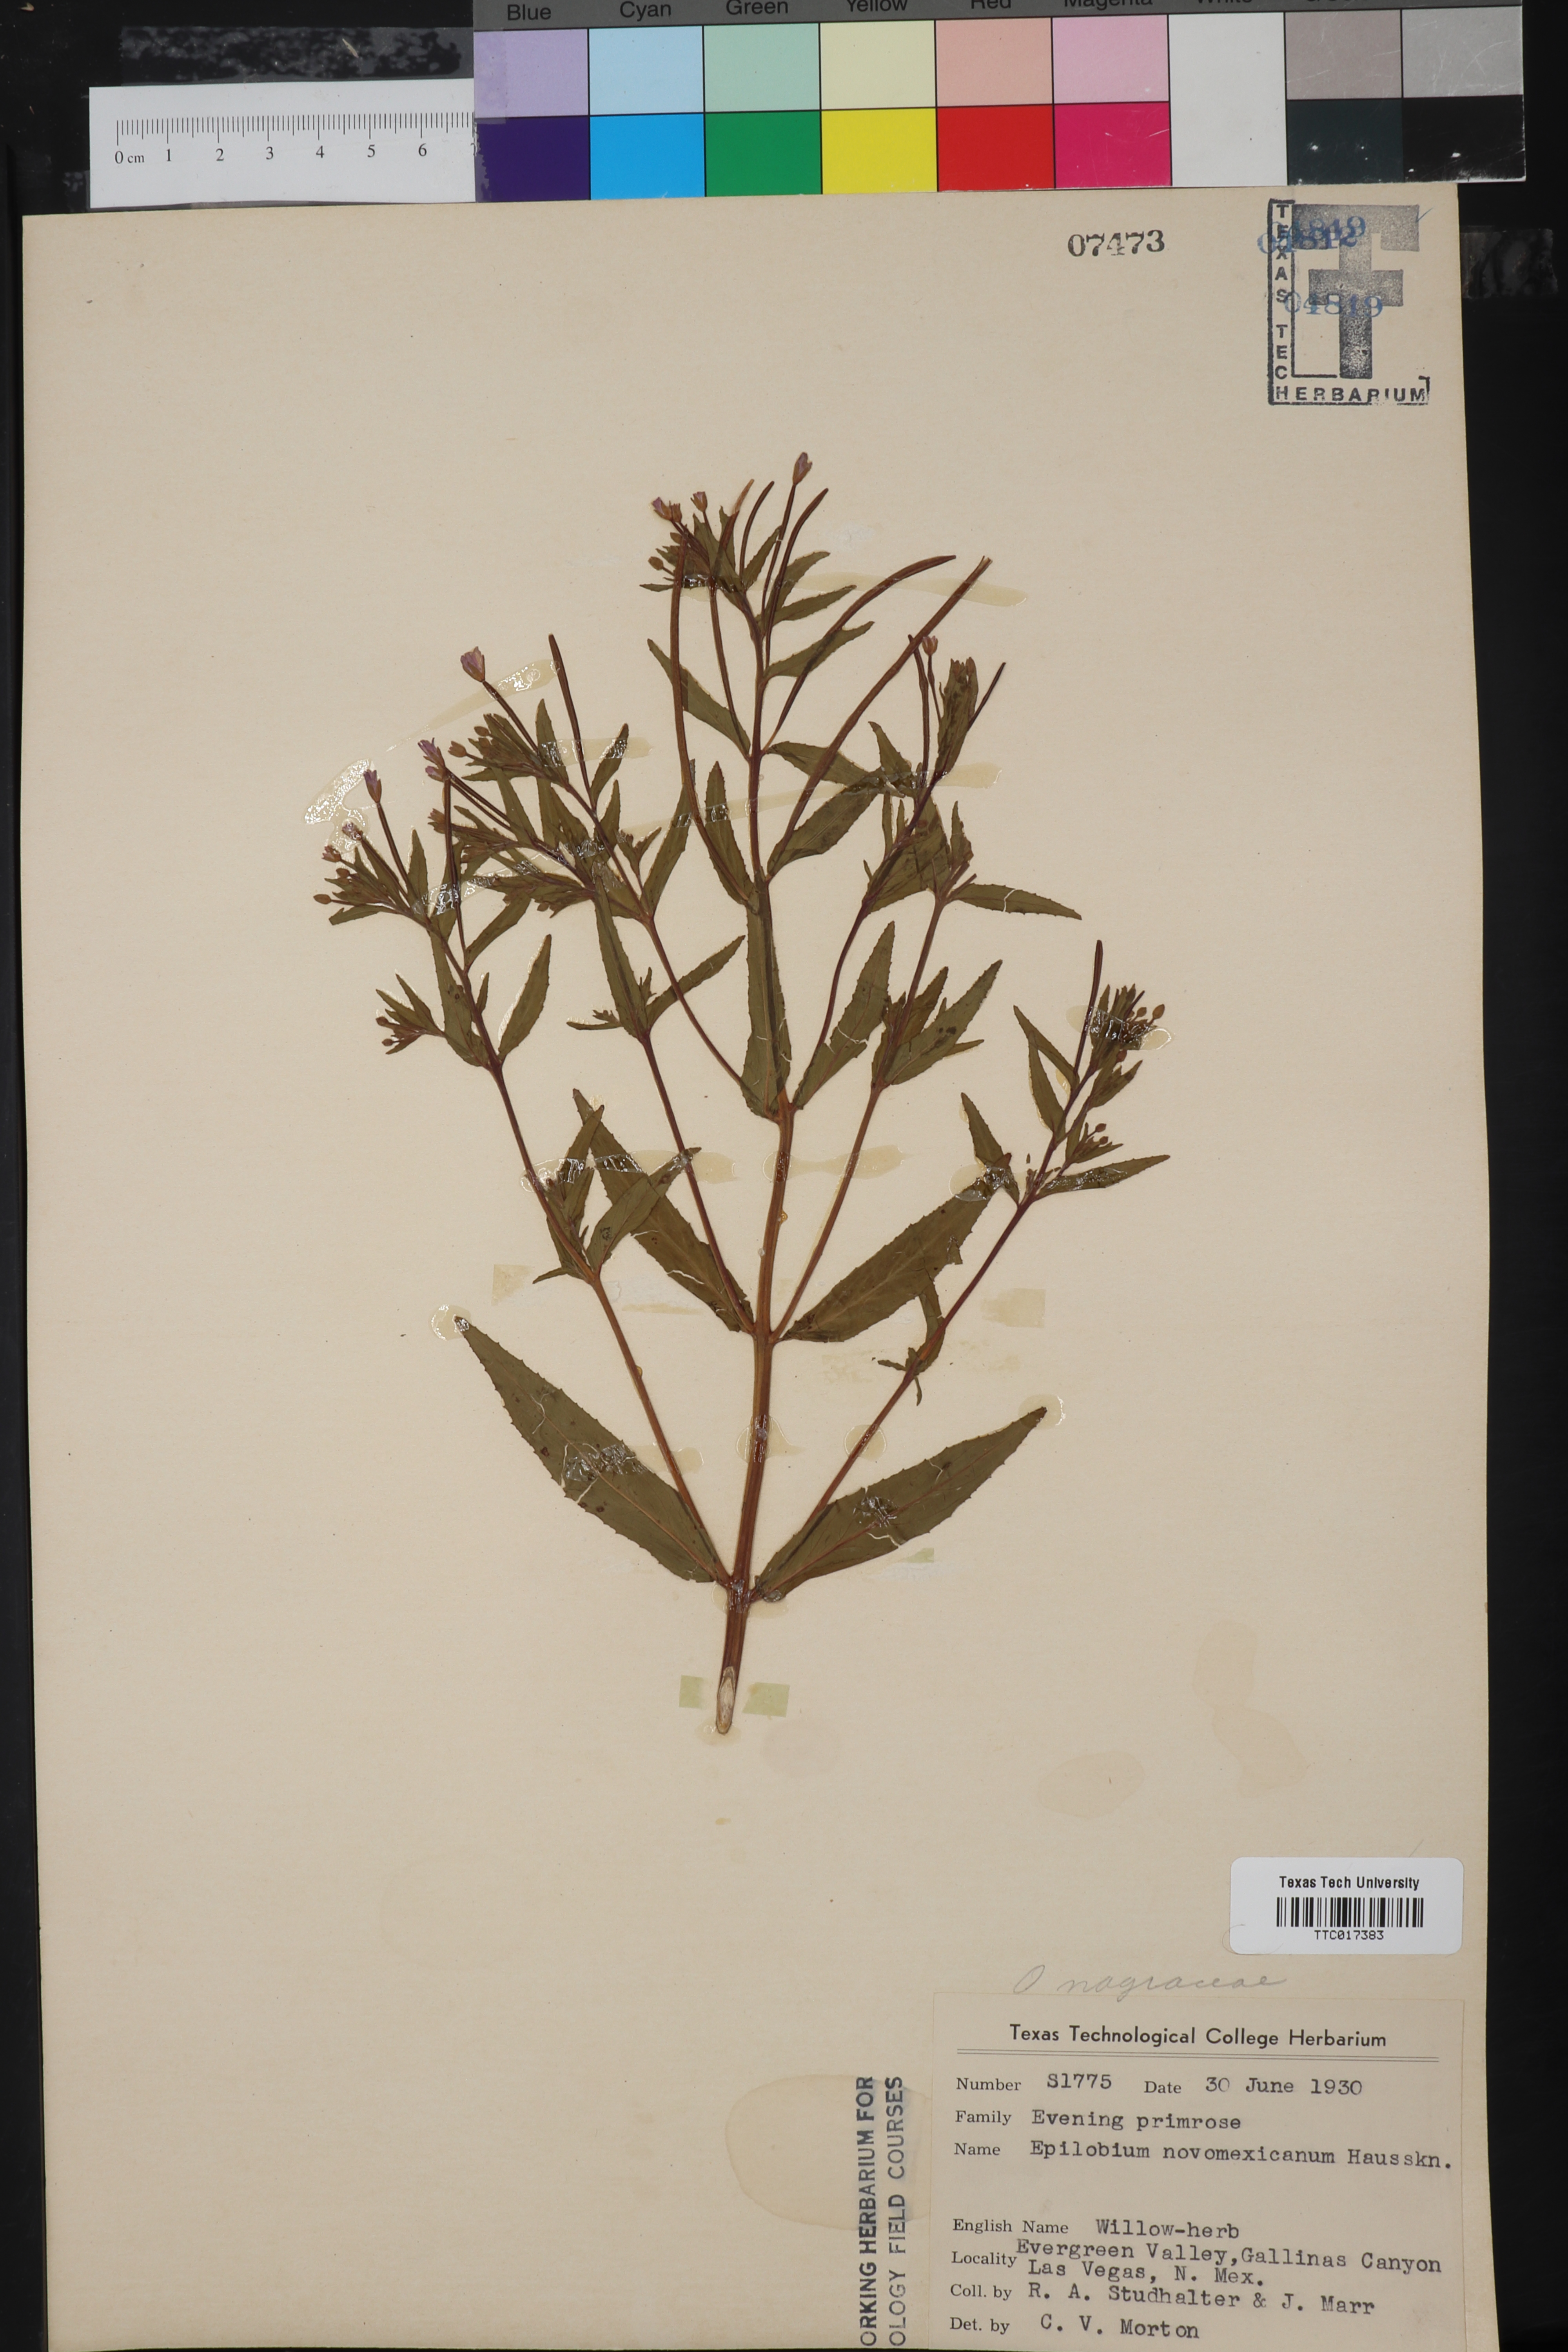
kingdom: Plantae
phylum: Tracheophyta
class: Magnoliopsida
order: Myrtales
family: Onagraceae
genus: Epilobium
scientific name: Epilobium ciliatum
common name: American willowherb
